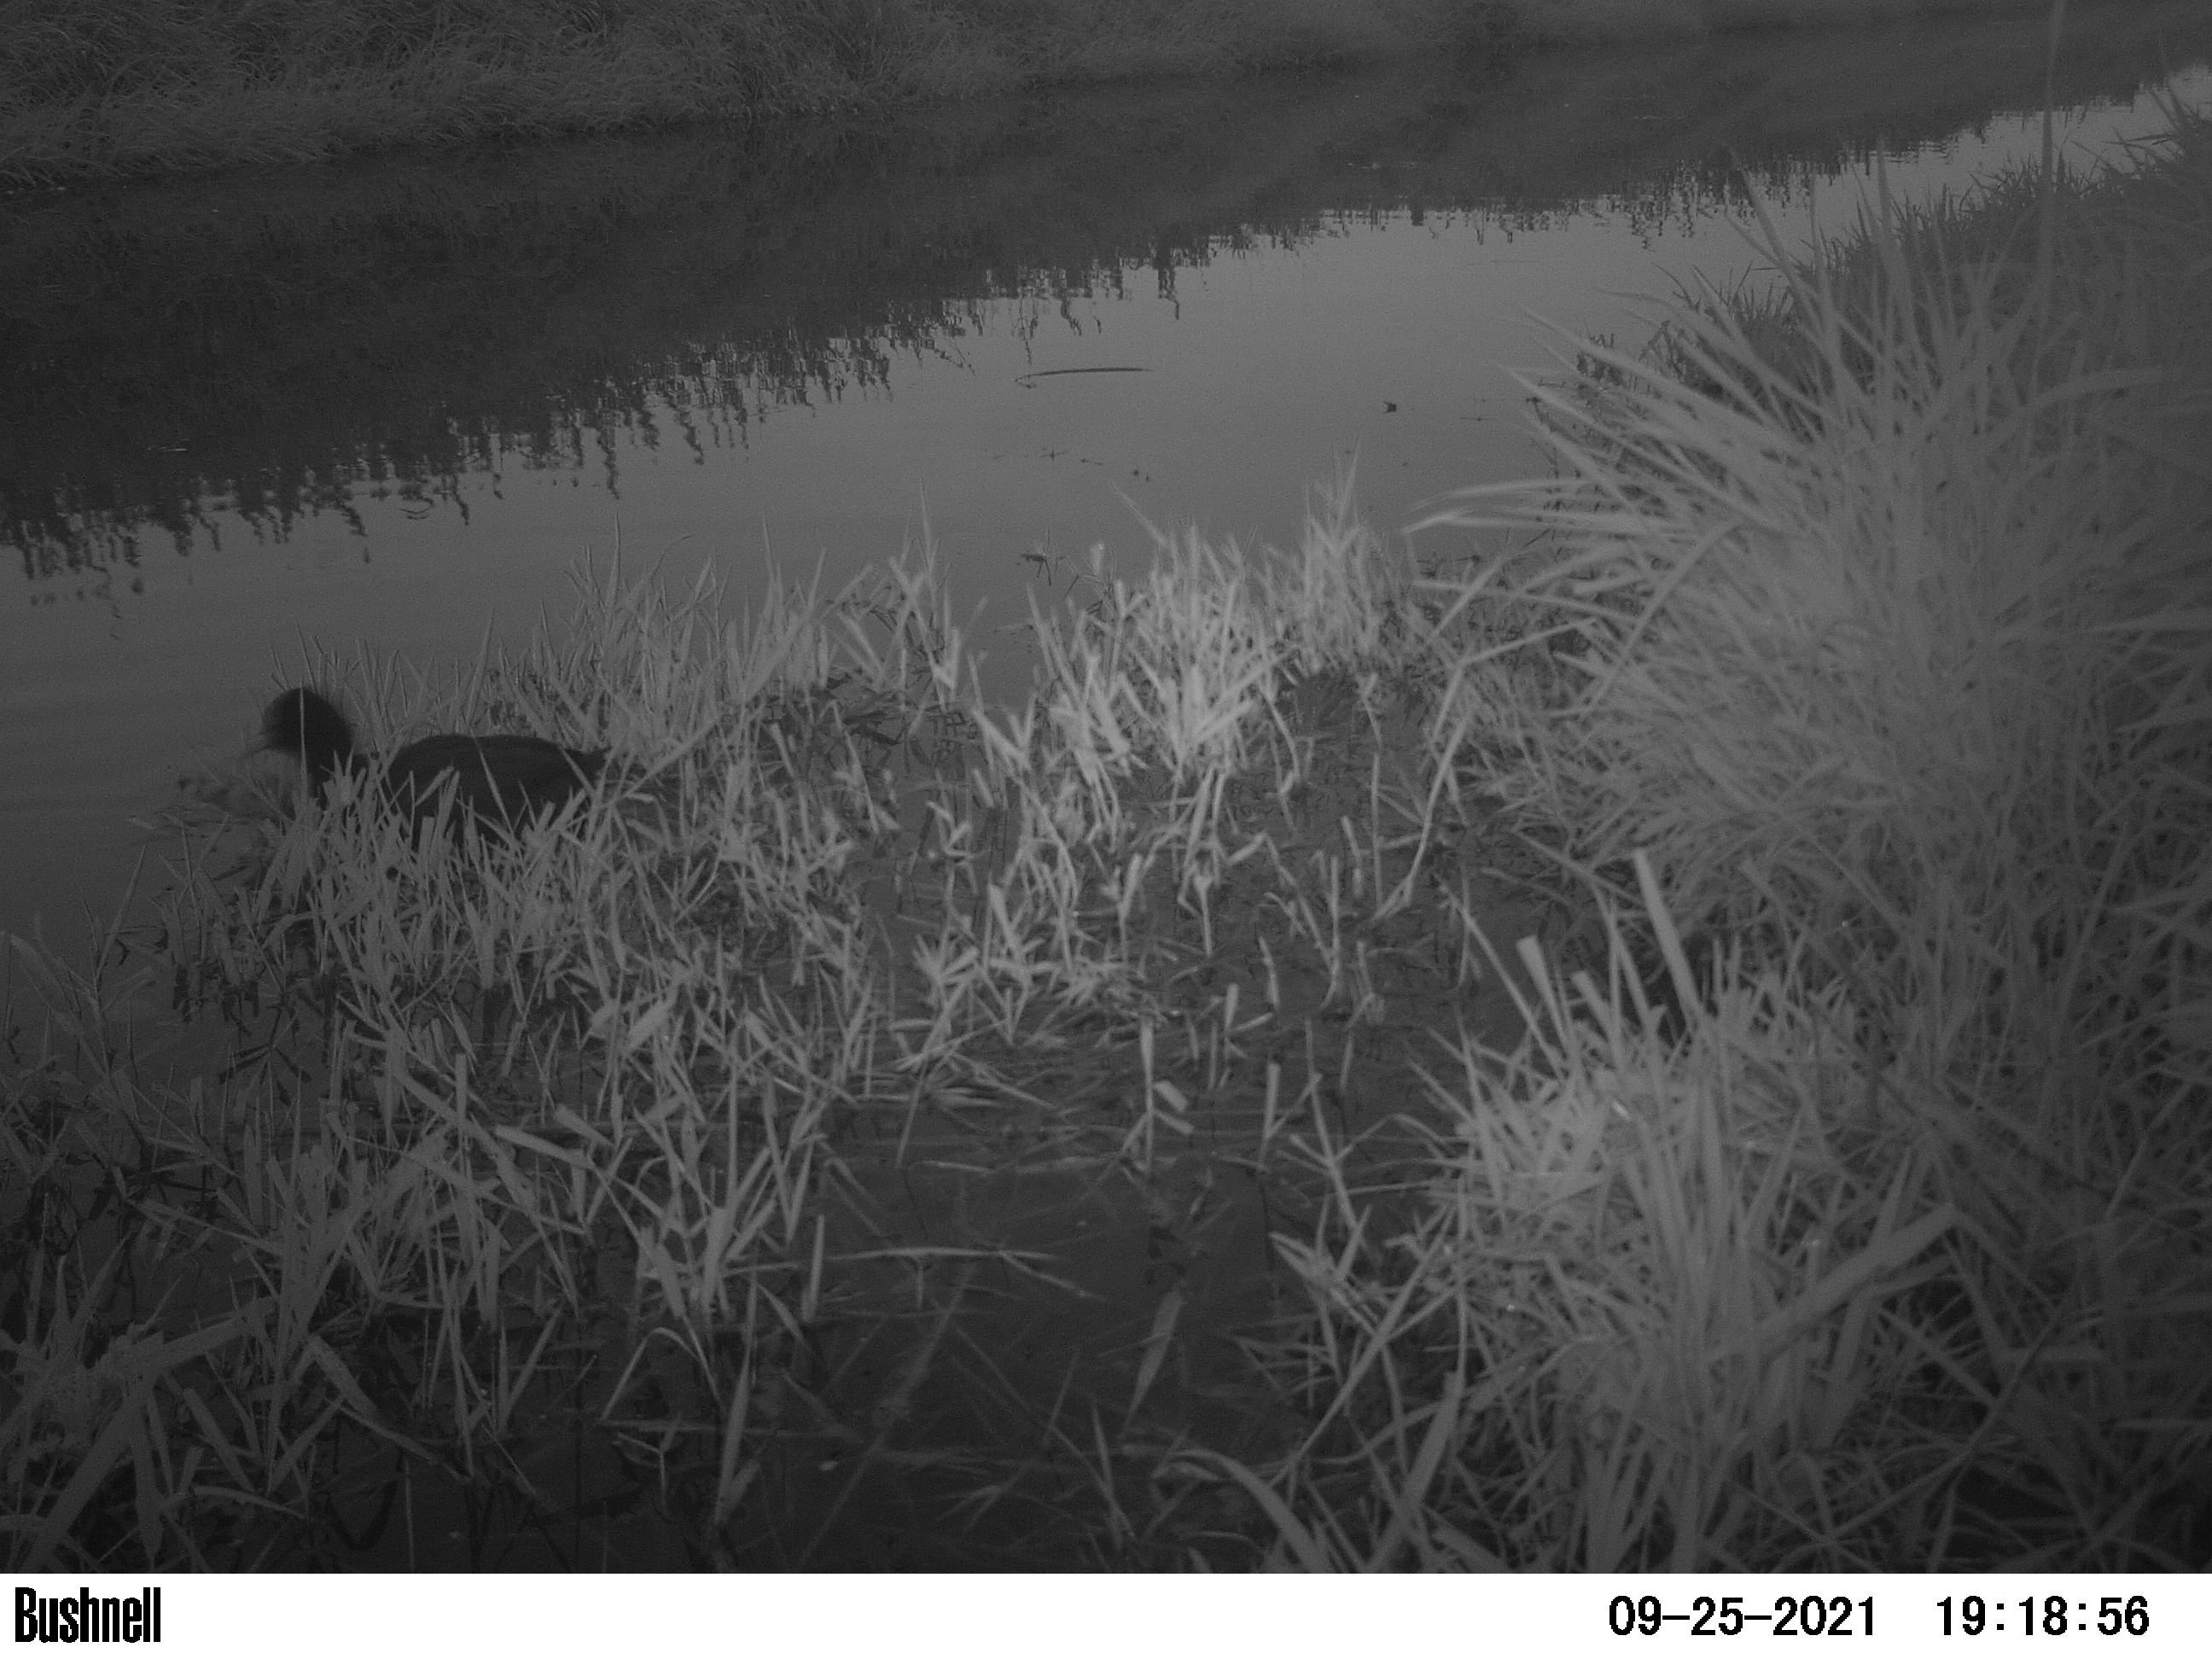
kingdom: Animalia
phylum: Chordata
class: Aves
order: Gruiformes
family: Rallidae
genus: Fulica
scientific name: Fulica atra
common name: Eurasian coot
